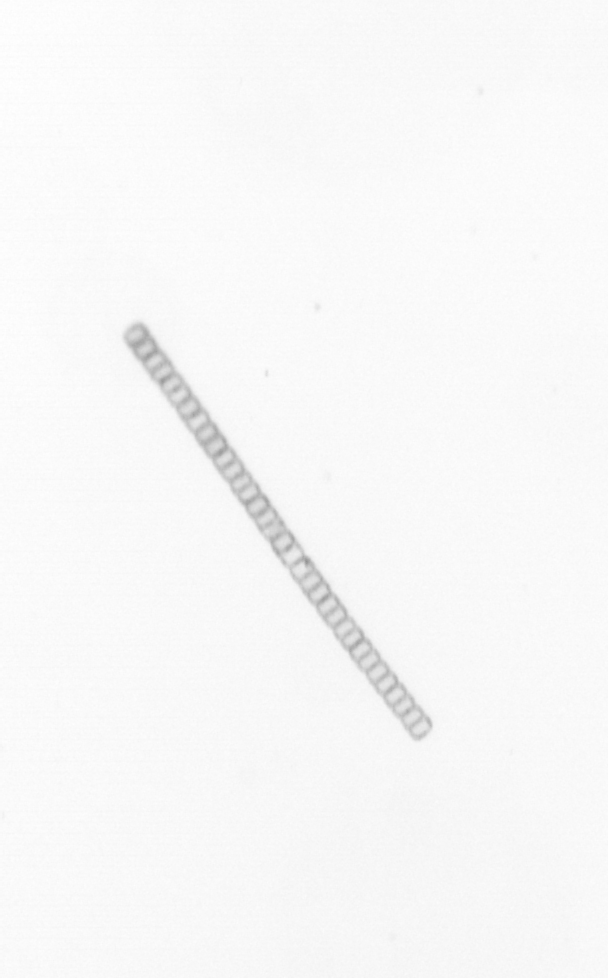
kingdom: Chromista
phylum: Ochrophyta
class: Bacillariophyceae
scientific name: Bacillariophyceae
